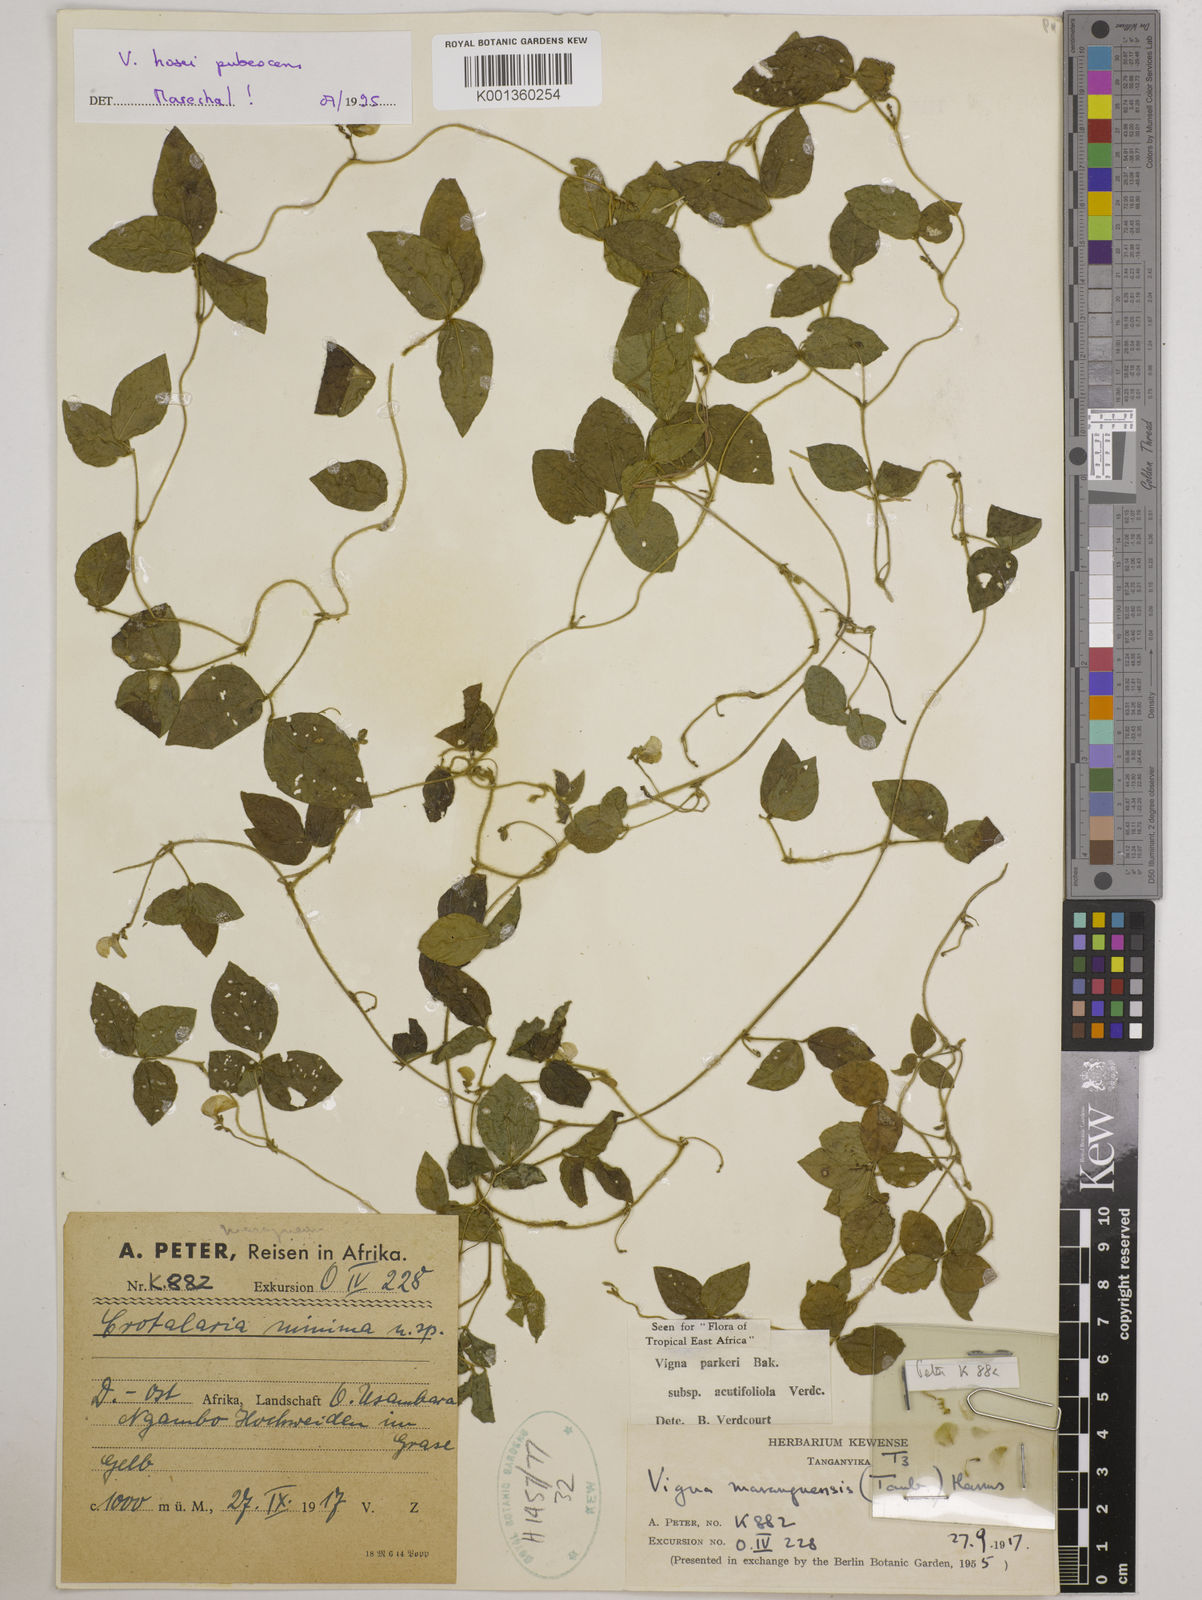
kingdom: Plantae
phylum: Tracheophyta
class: Magnoliopsida
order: Fabales
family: Fabaceae
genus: Vigna
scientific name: Vigna
